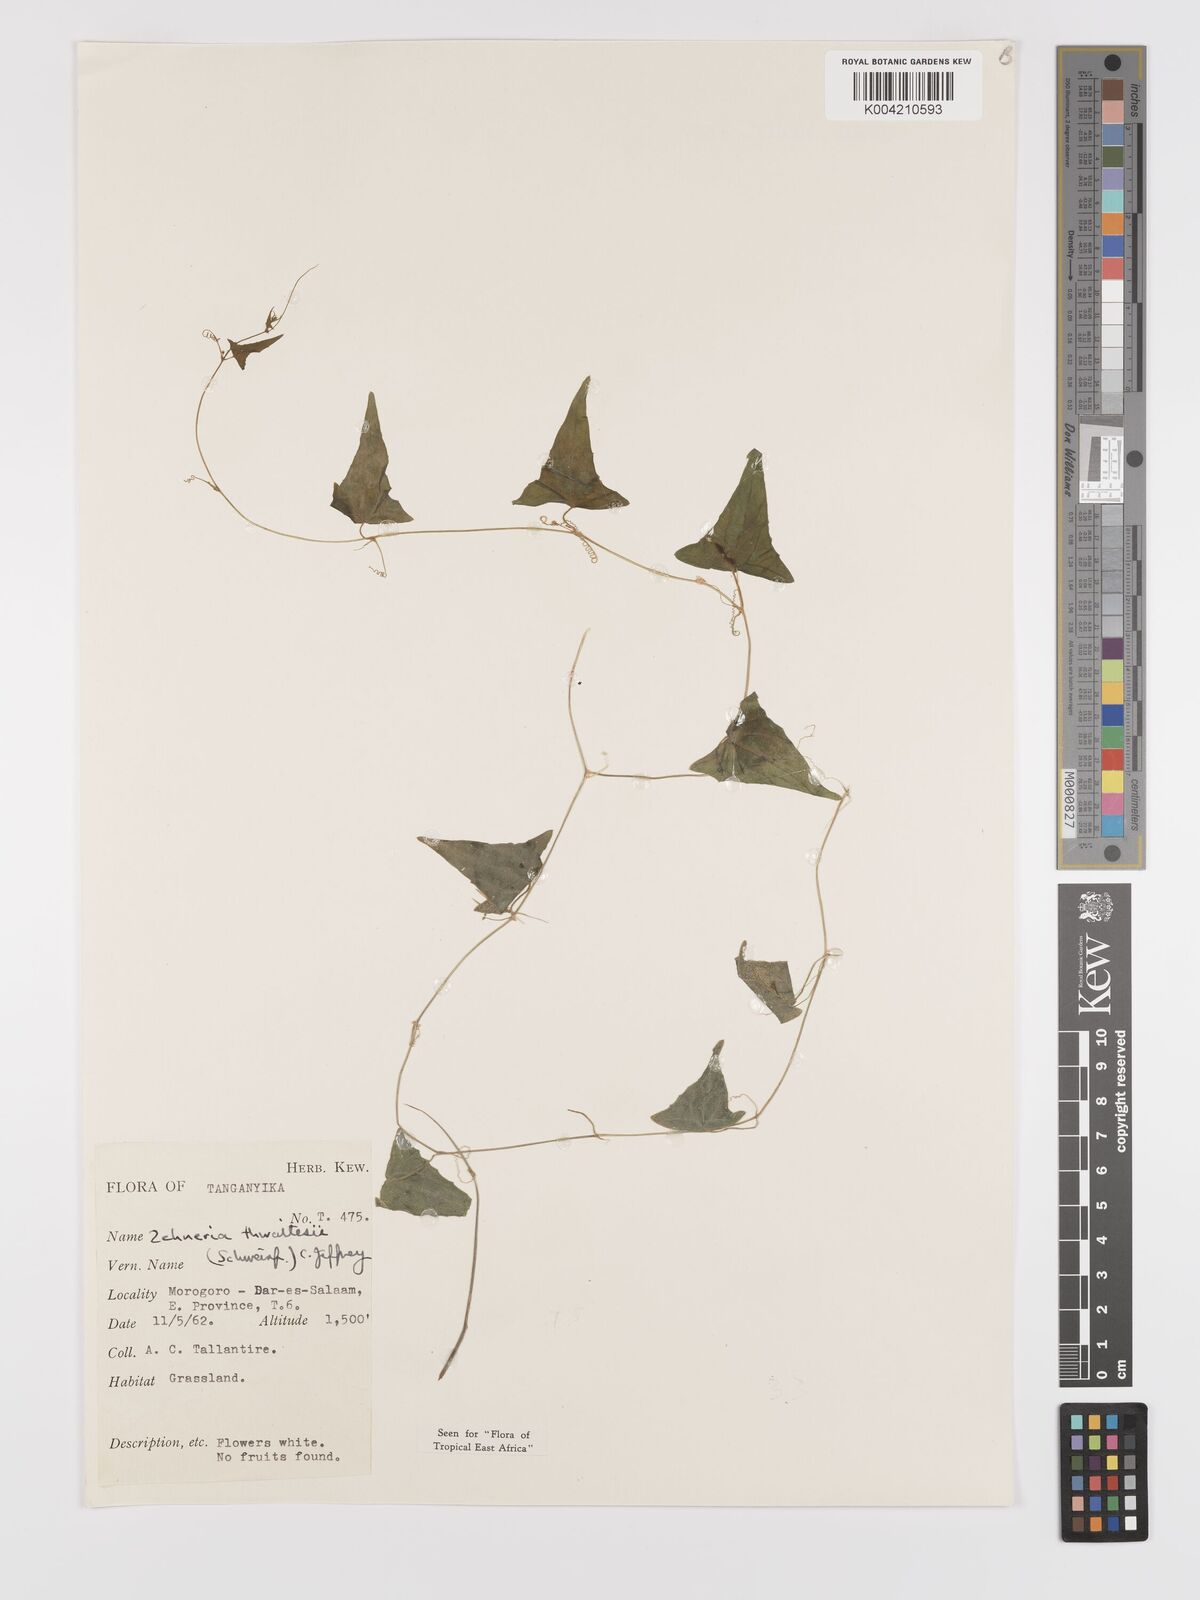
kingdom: Plantae
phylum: Tracheophyta
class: Magnoliopsida
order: Cucurbitales
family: Cucurbitaceae
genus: Zehneria
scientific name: Zehneria thwaitesii
